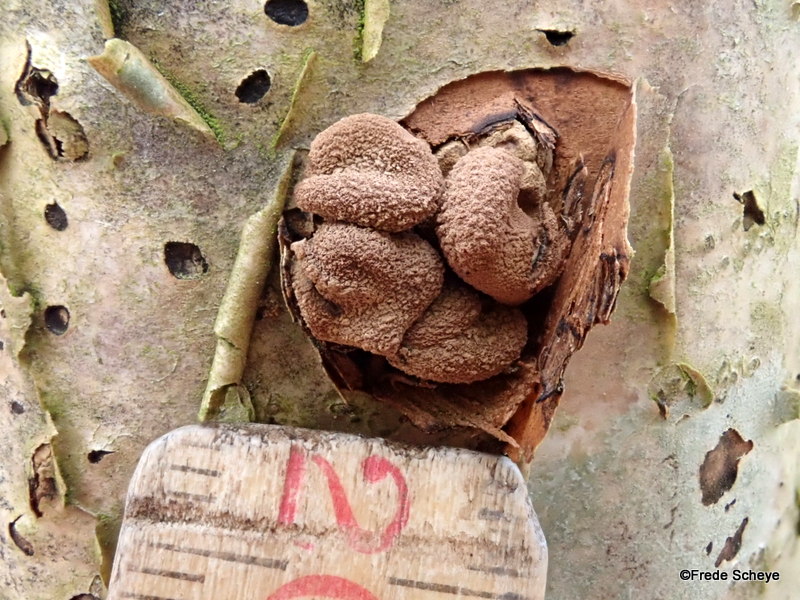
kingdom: Fungi
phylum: Ascomycota
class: Leotiomycetes
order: Helotiales
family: Cenangiaceae
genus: Encoelia
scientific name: Encoelia furfuracea
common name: hassel-læderskive
